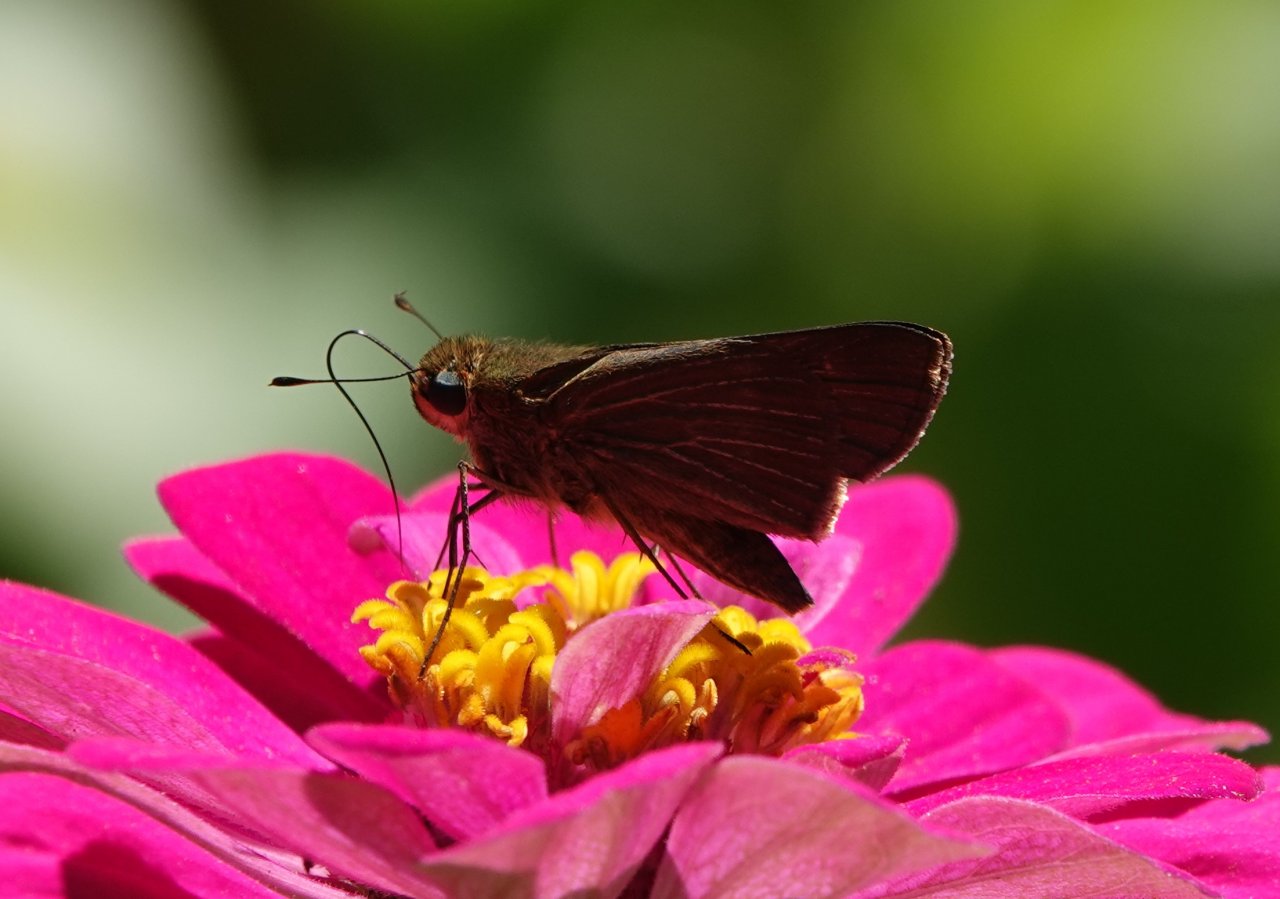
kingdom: Animalia
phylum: Arthropoda
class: Insecta
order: Lepidoptera
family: Hesperiidae
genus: Panoquina
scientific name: Panoquina ocola
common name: Ocola Skipper
